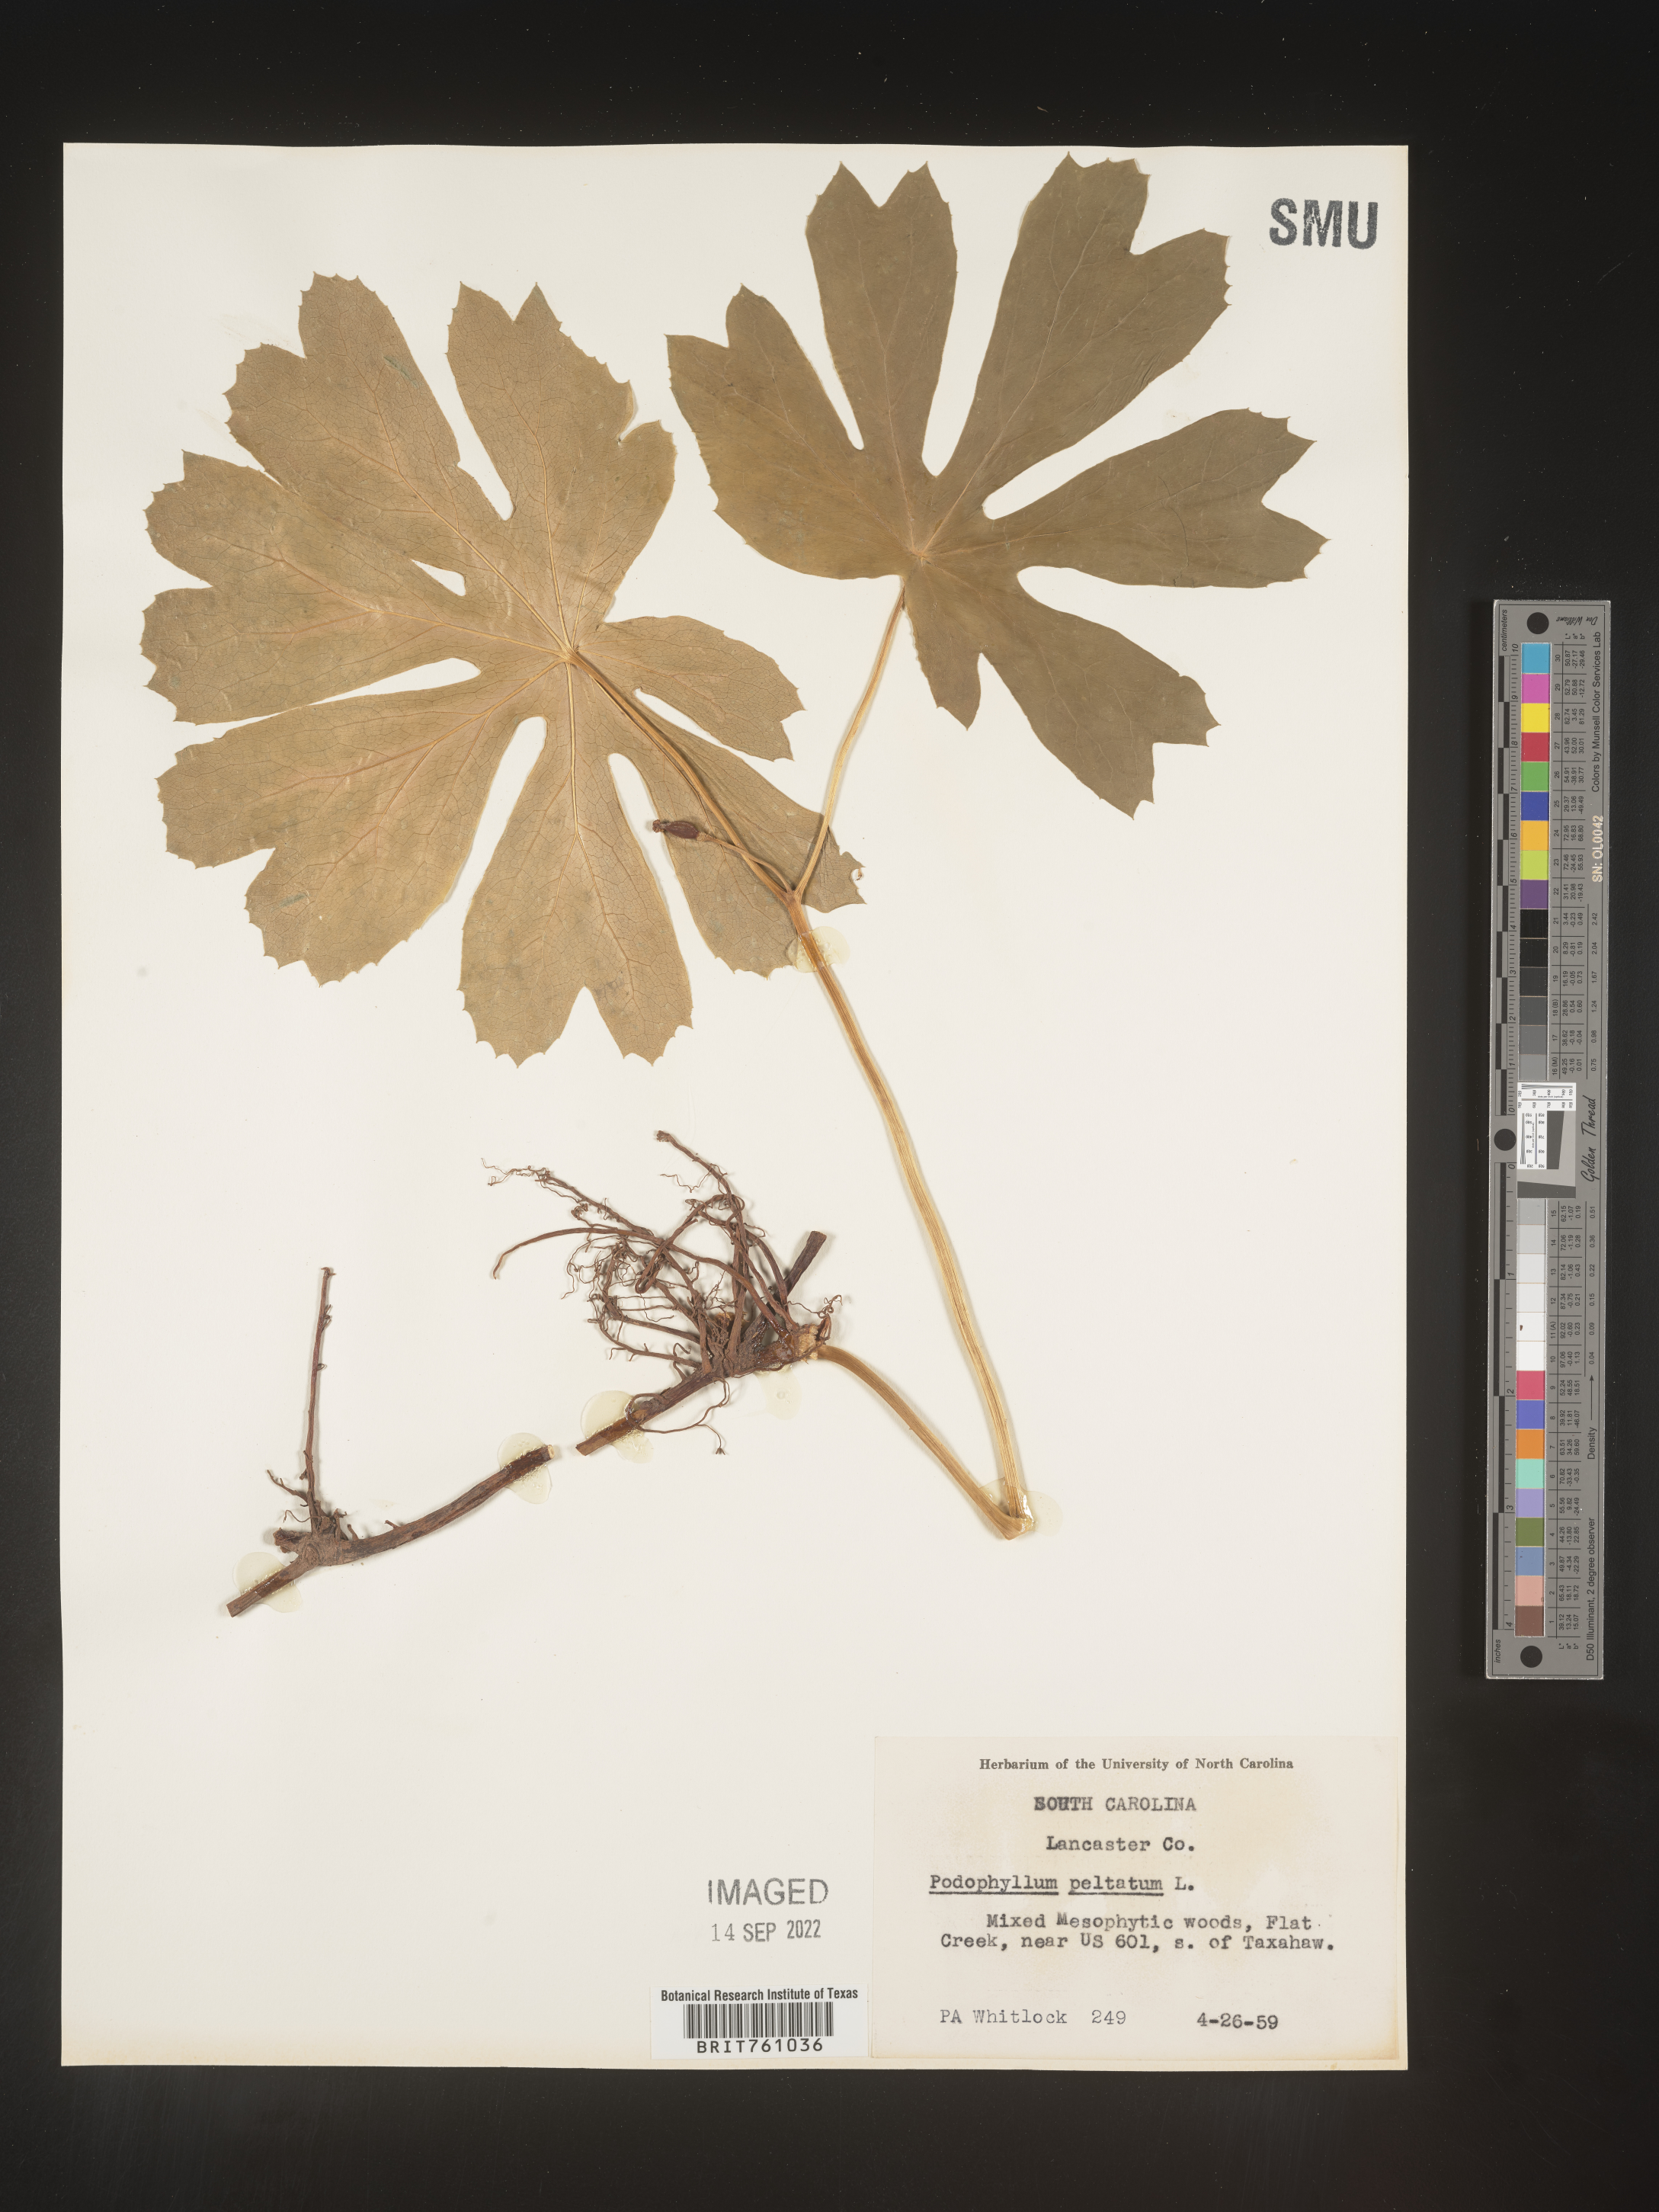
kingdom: Plantae
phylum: Tracheophyta
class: Magnoliopsida
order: Ranunculales
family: Berberidaceae
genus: Podophyllum
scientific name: Podophyllum peltatum
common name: Wild mandrake
